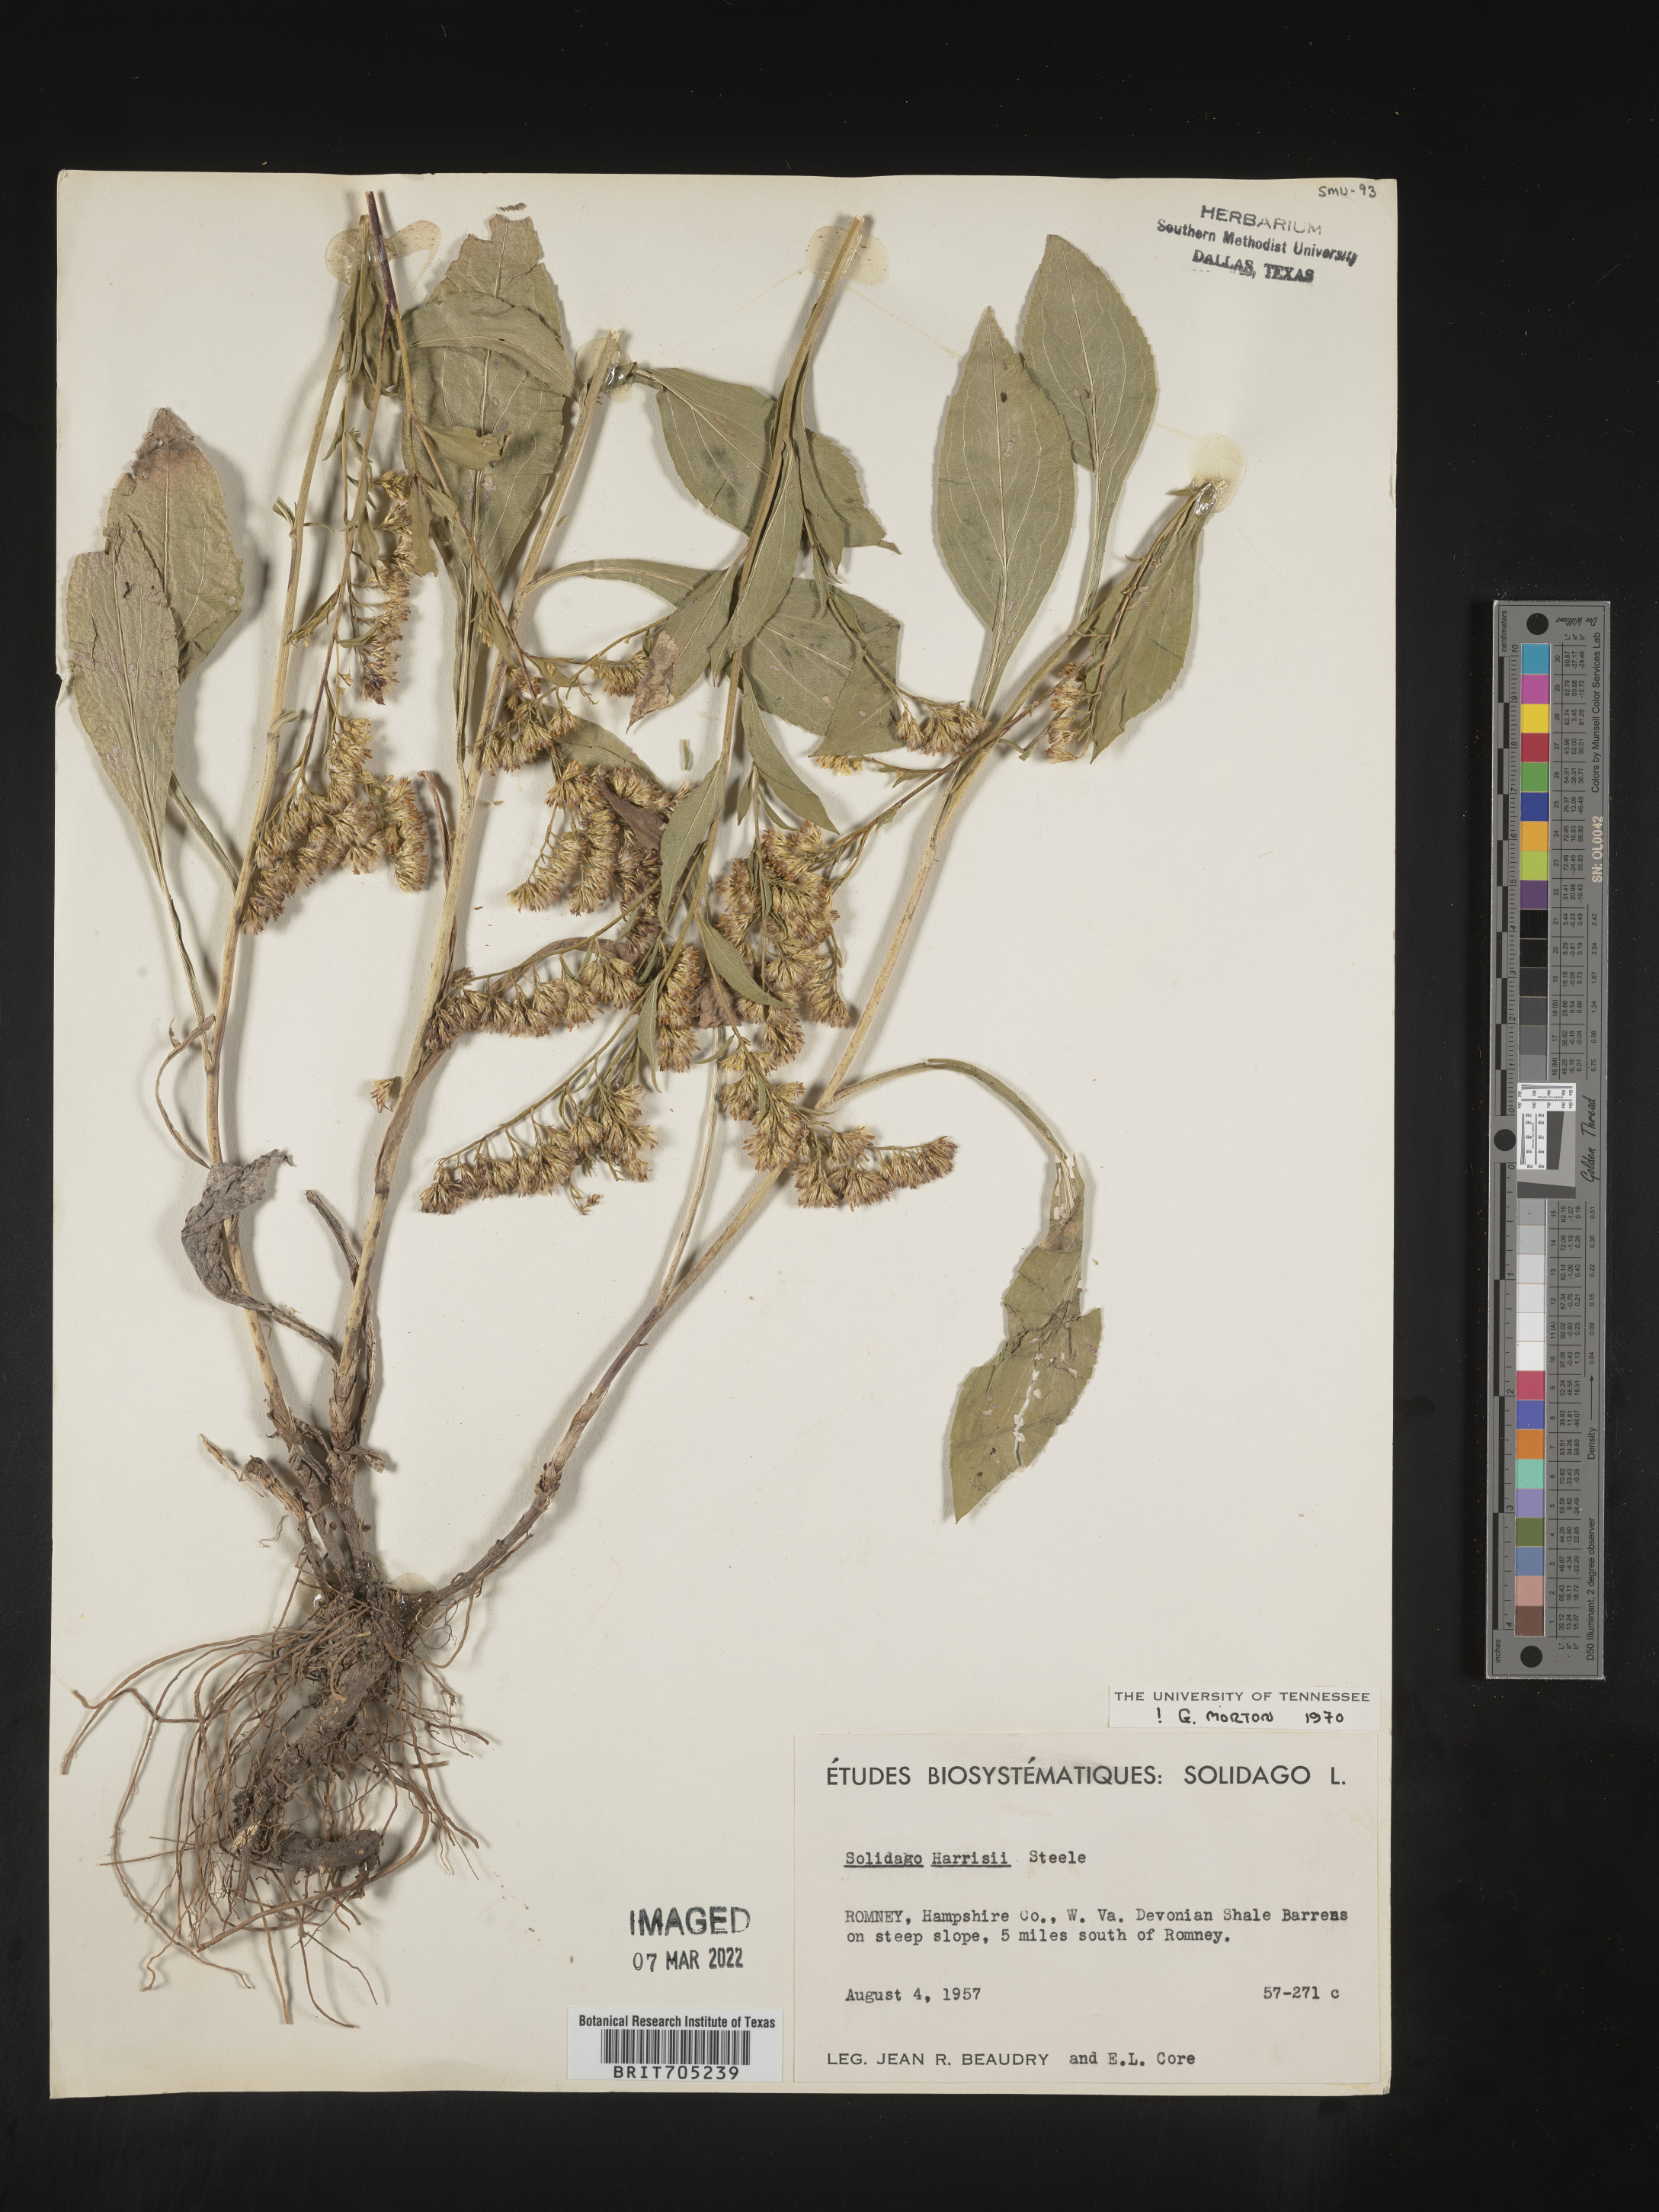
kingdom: Plantae
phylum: Tracheophyta
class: Magnoliopsida
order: Asterales
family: Asteraceae
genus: Solidago
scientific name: Solidago harrisii
